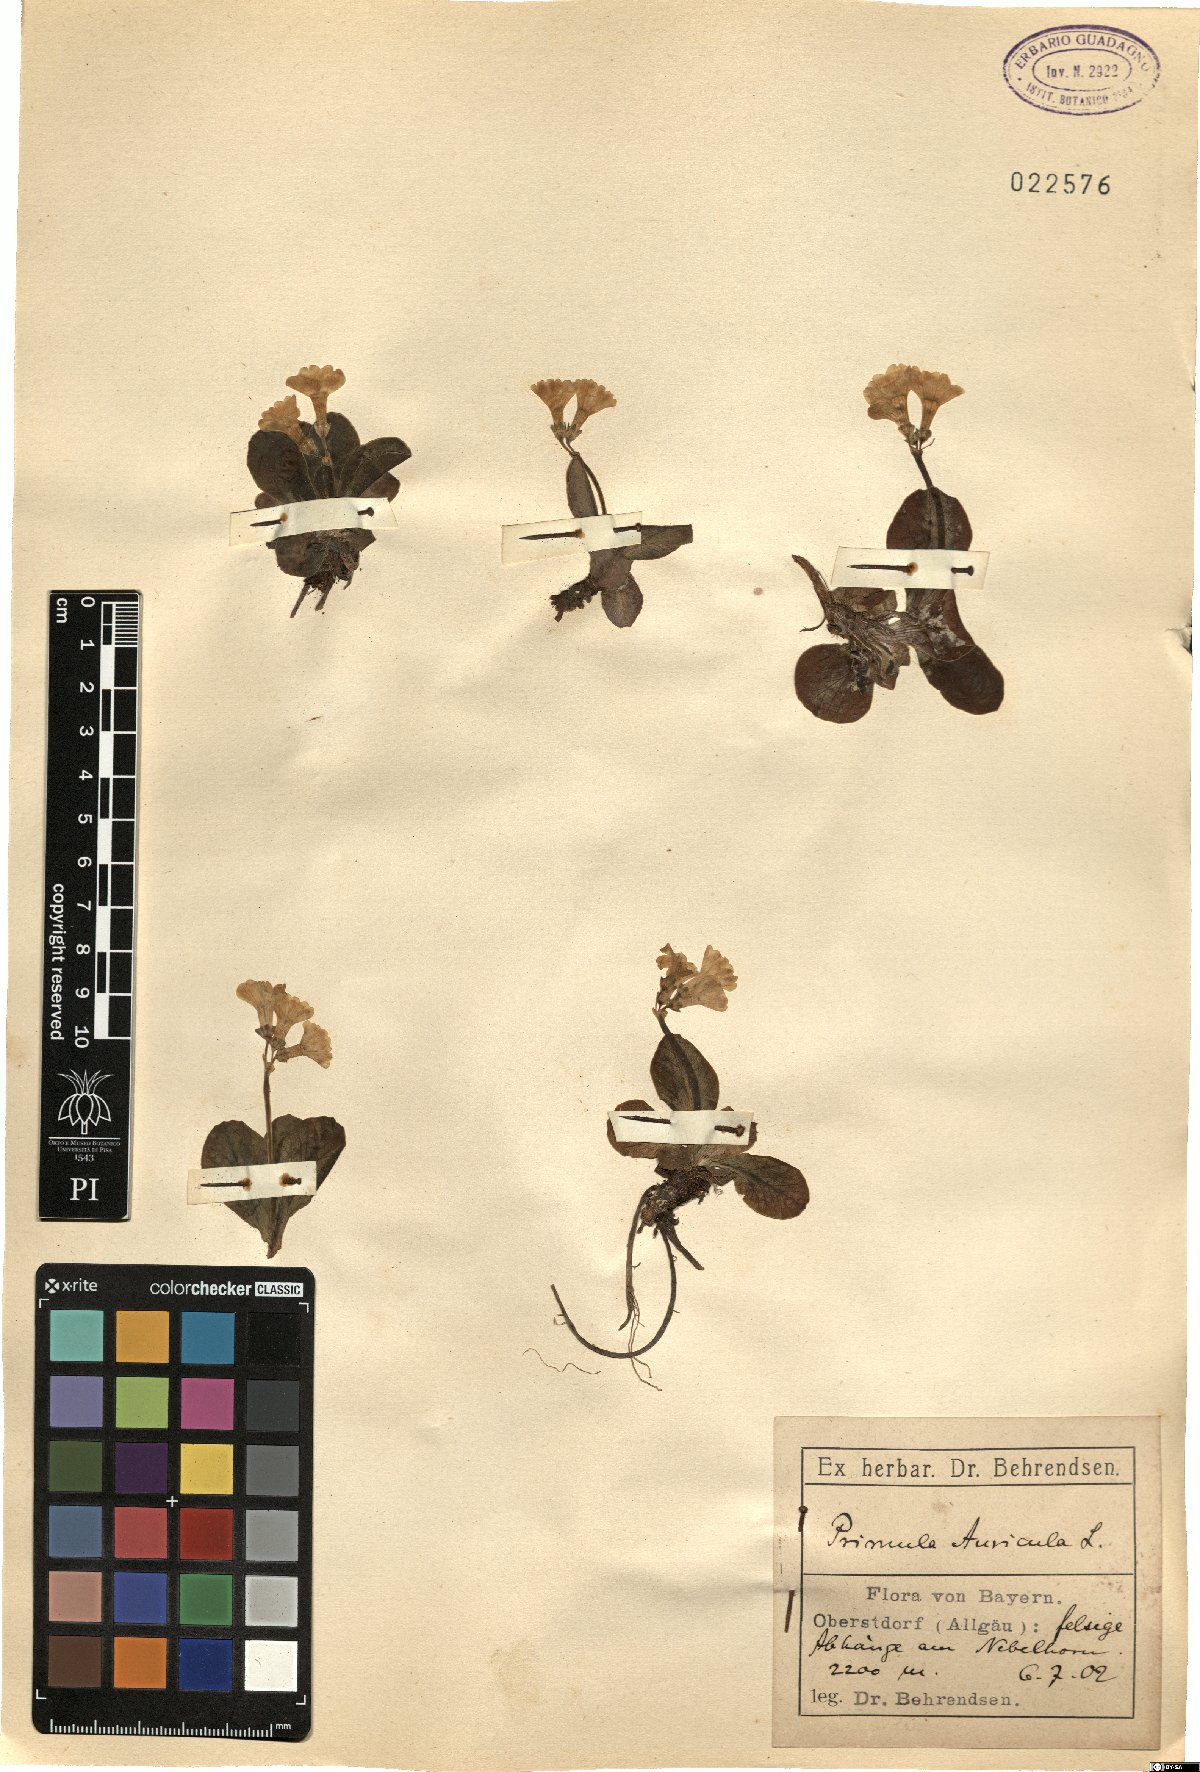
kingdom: Plantae
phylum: Tracheophyta
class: Magnoliopsida
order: Ericales
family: Primulaceae
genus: Primula
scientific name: Primula auricula
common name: Auricula
